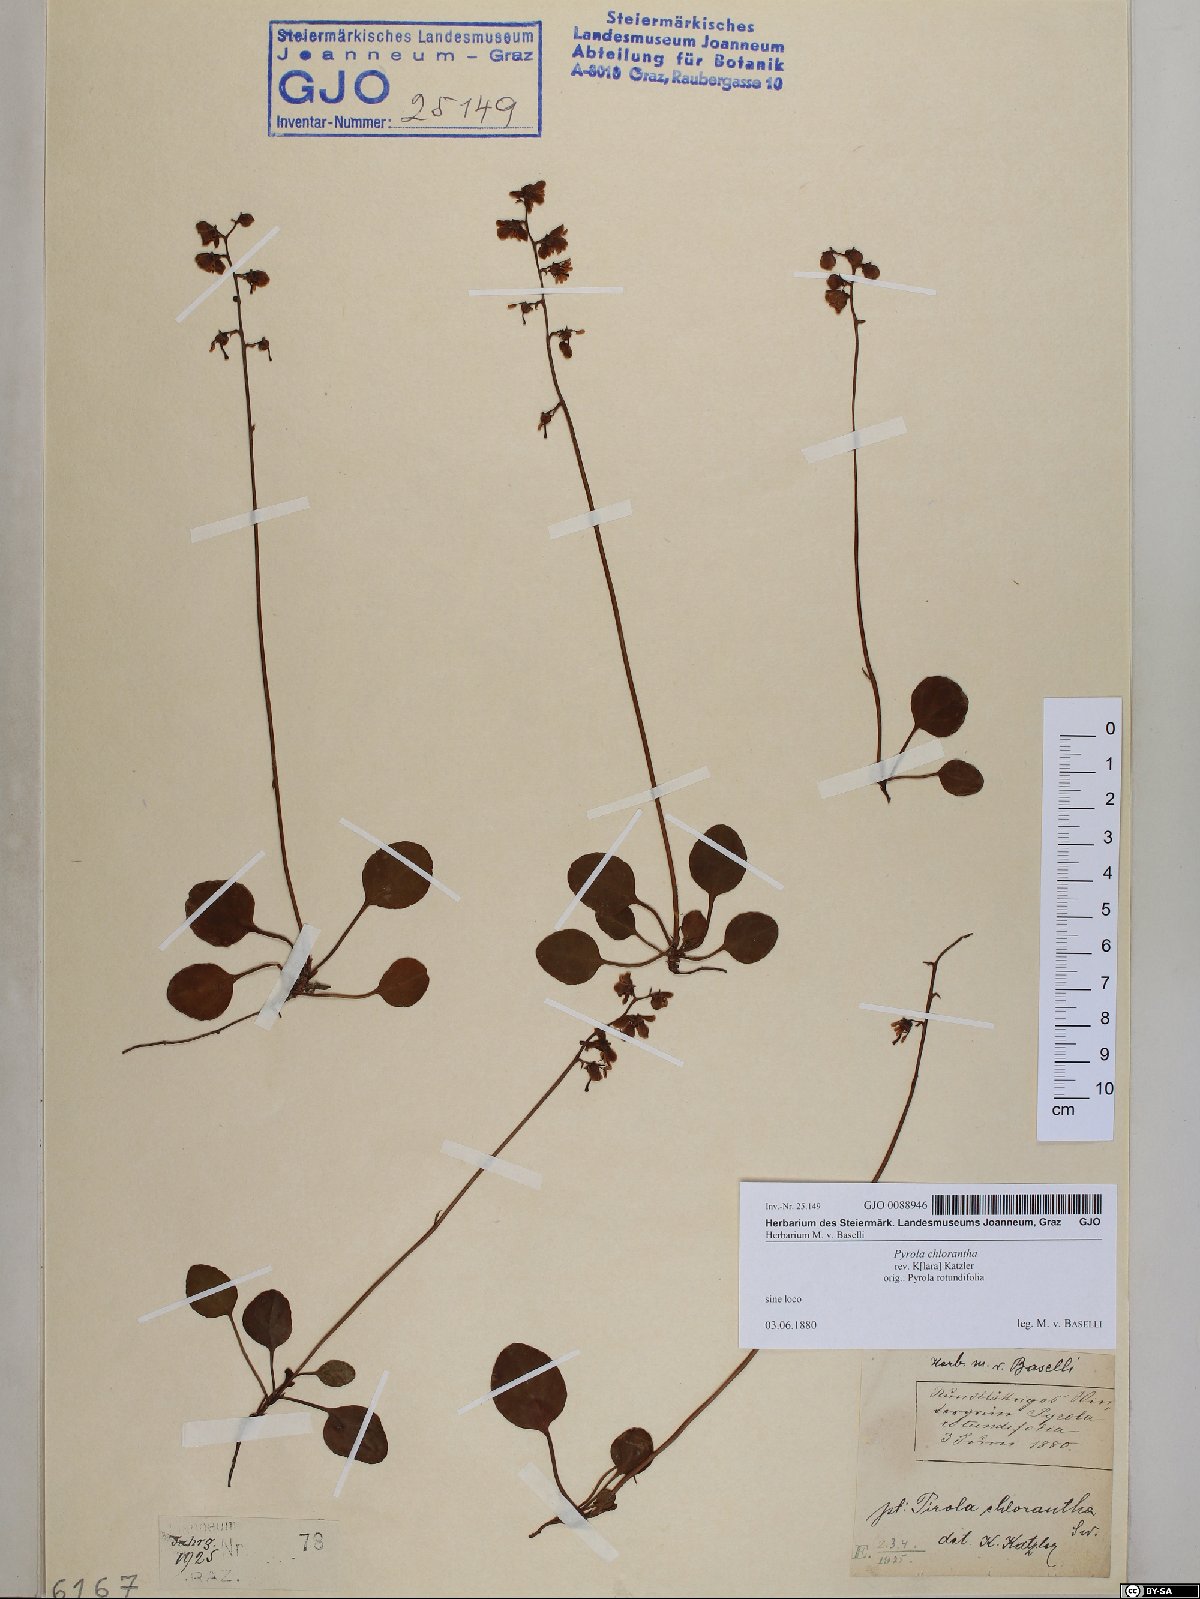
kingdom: Plantae
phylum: Tracheophyta
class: Magnoliopsida
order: Ericales
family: Ericaceae
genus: Pyrola
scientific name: Pyrola chlorantha
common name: Green wintergreen
